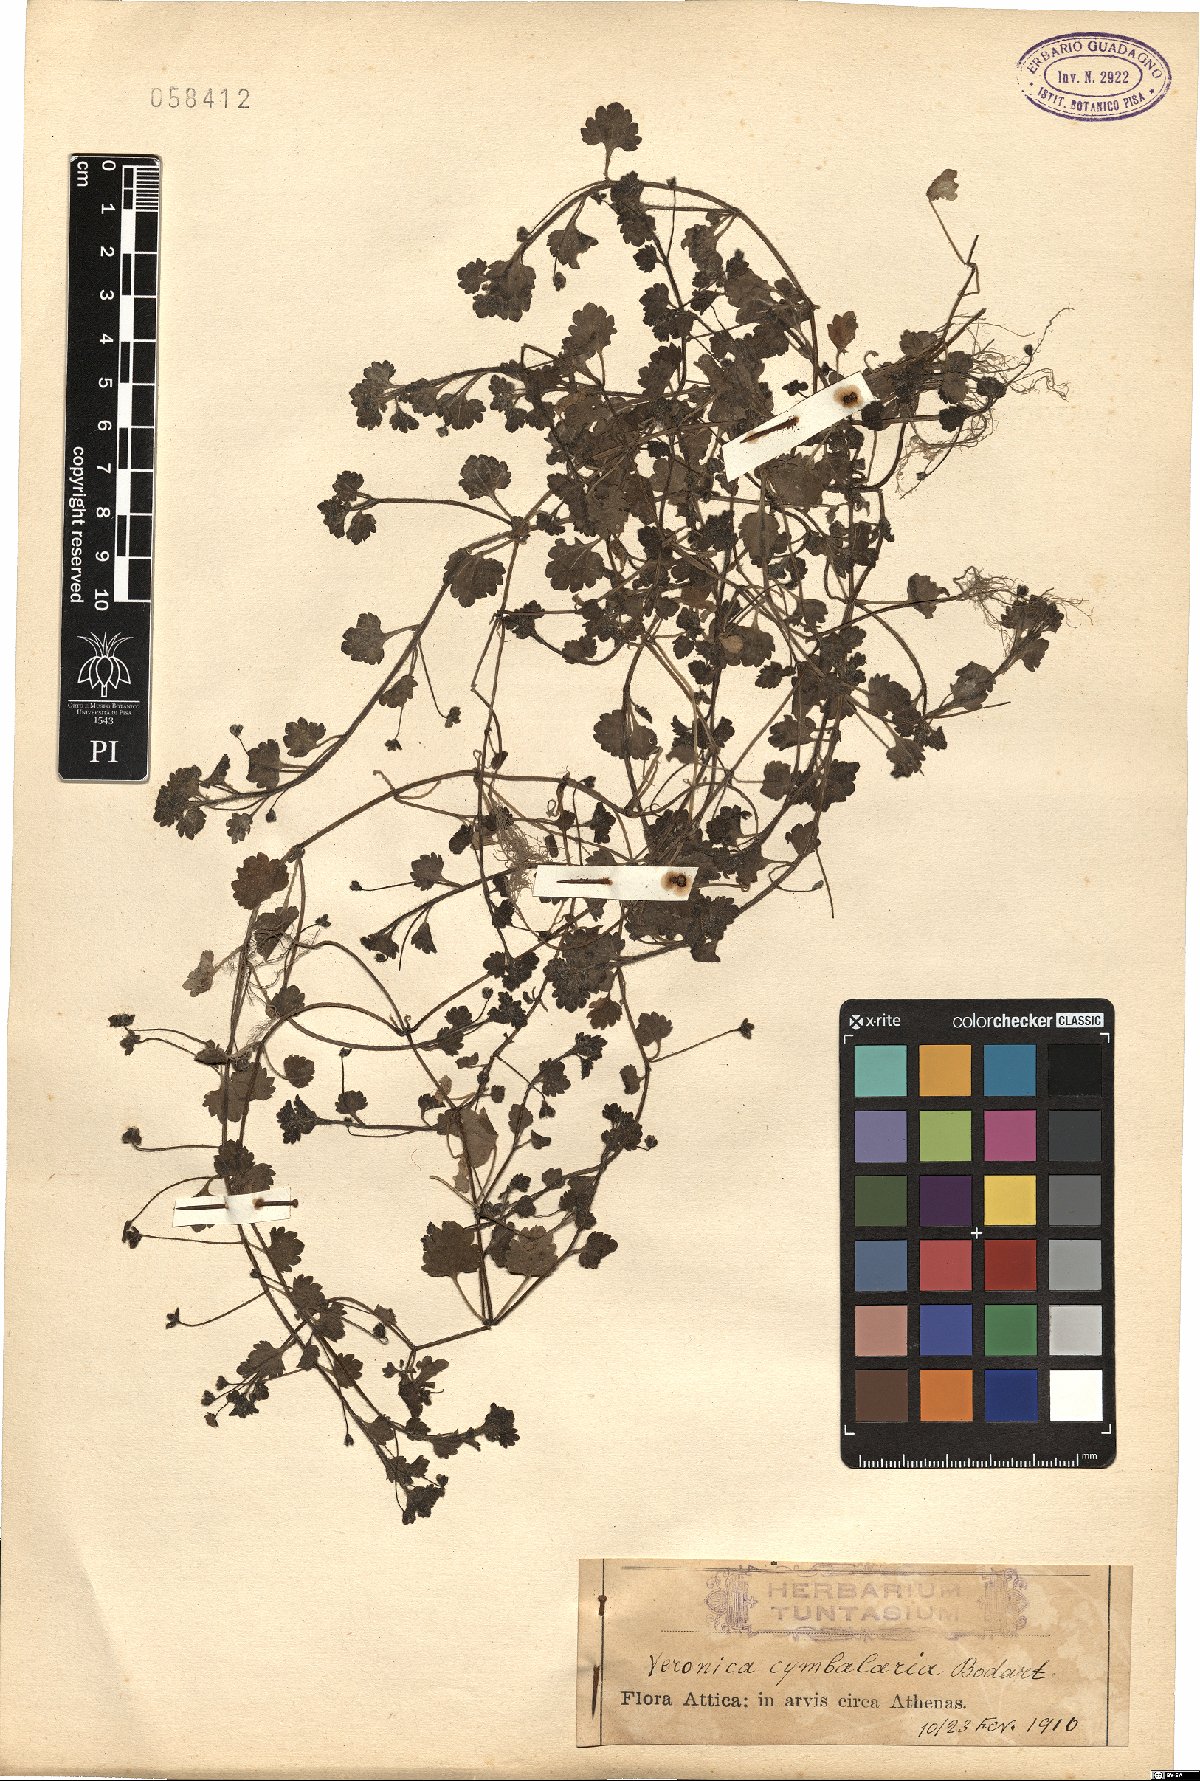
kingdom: Plantae
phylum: Tracheophyta
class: Magnoliopsida
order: Lamiales
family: Plantaginaceae
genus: Veronica
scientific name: Veronica cymbalaria
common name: Pale speedwell
